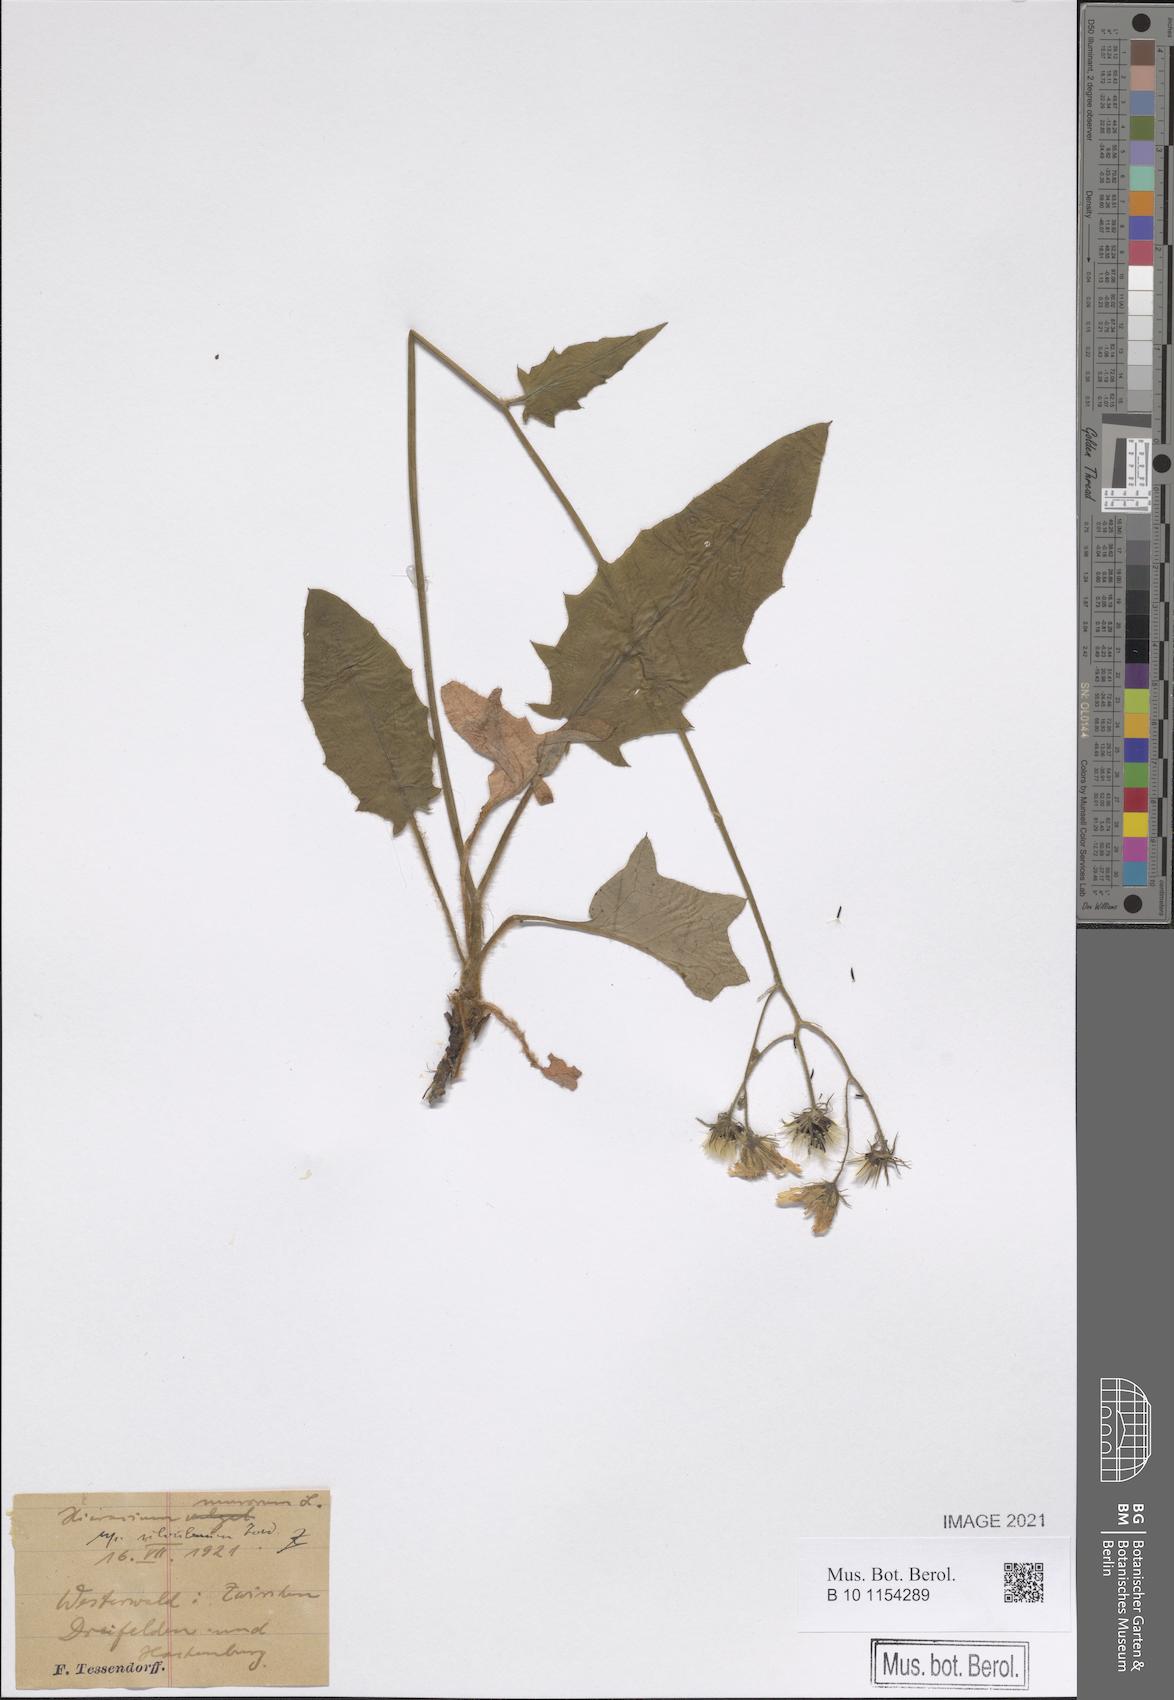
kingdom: Plantae
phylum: Tracheophyta
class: Magnoliopsida
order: Asterales
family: Asteraceae
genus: Hieracium
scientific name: Hieracium murorum
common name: Wall hawkweed
